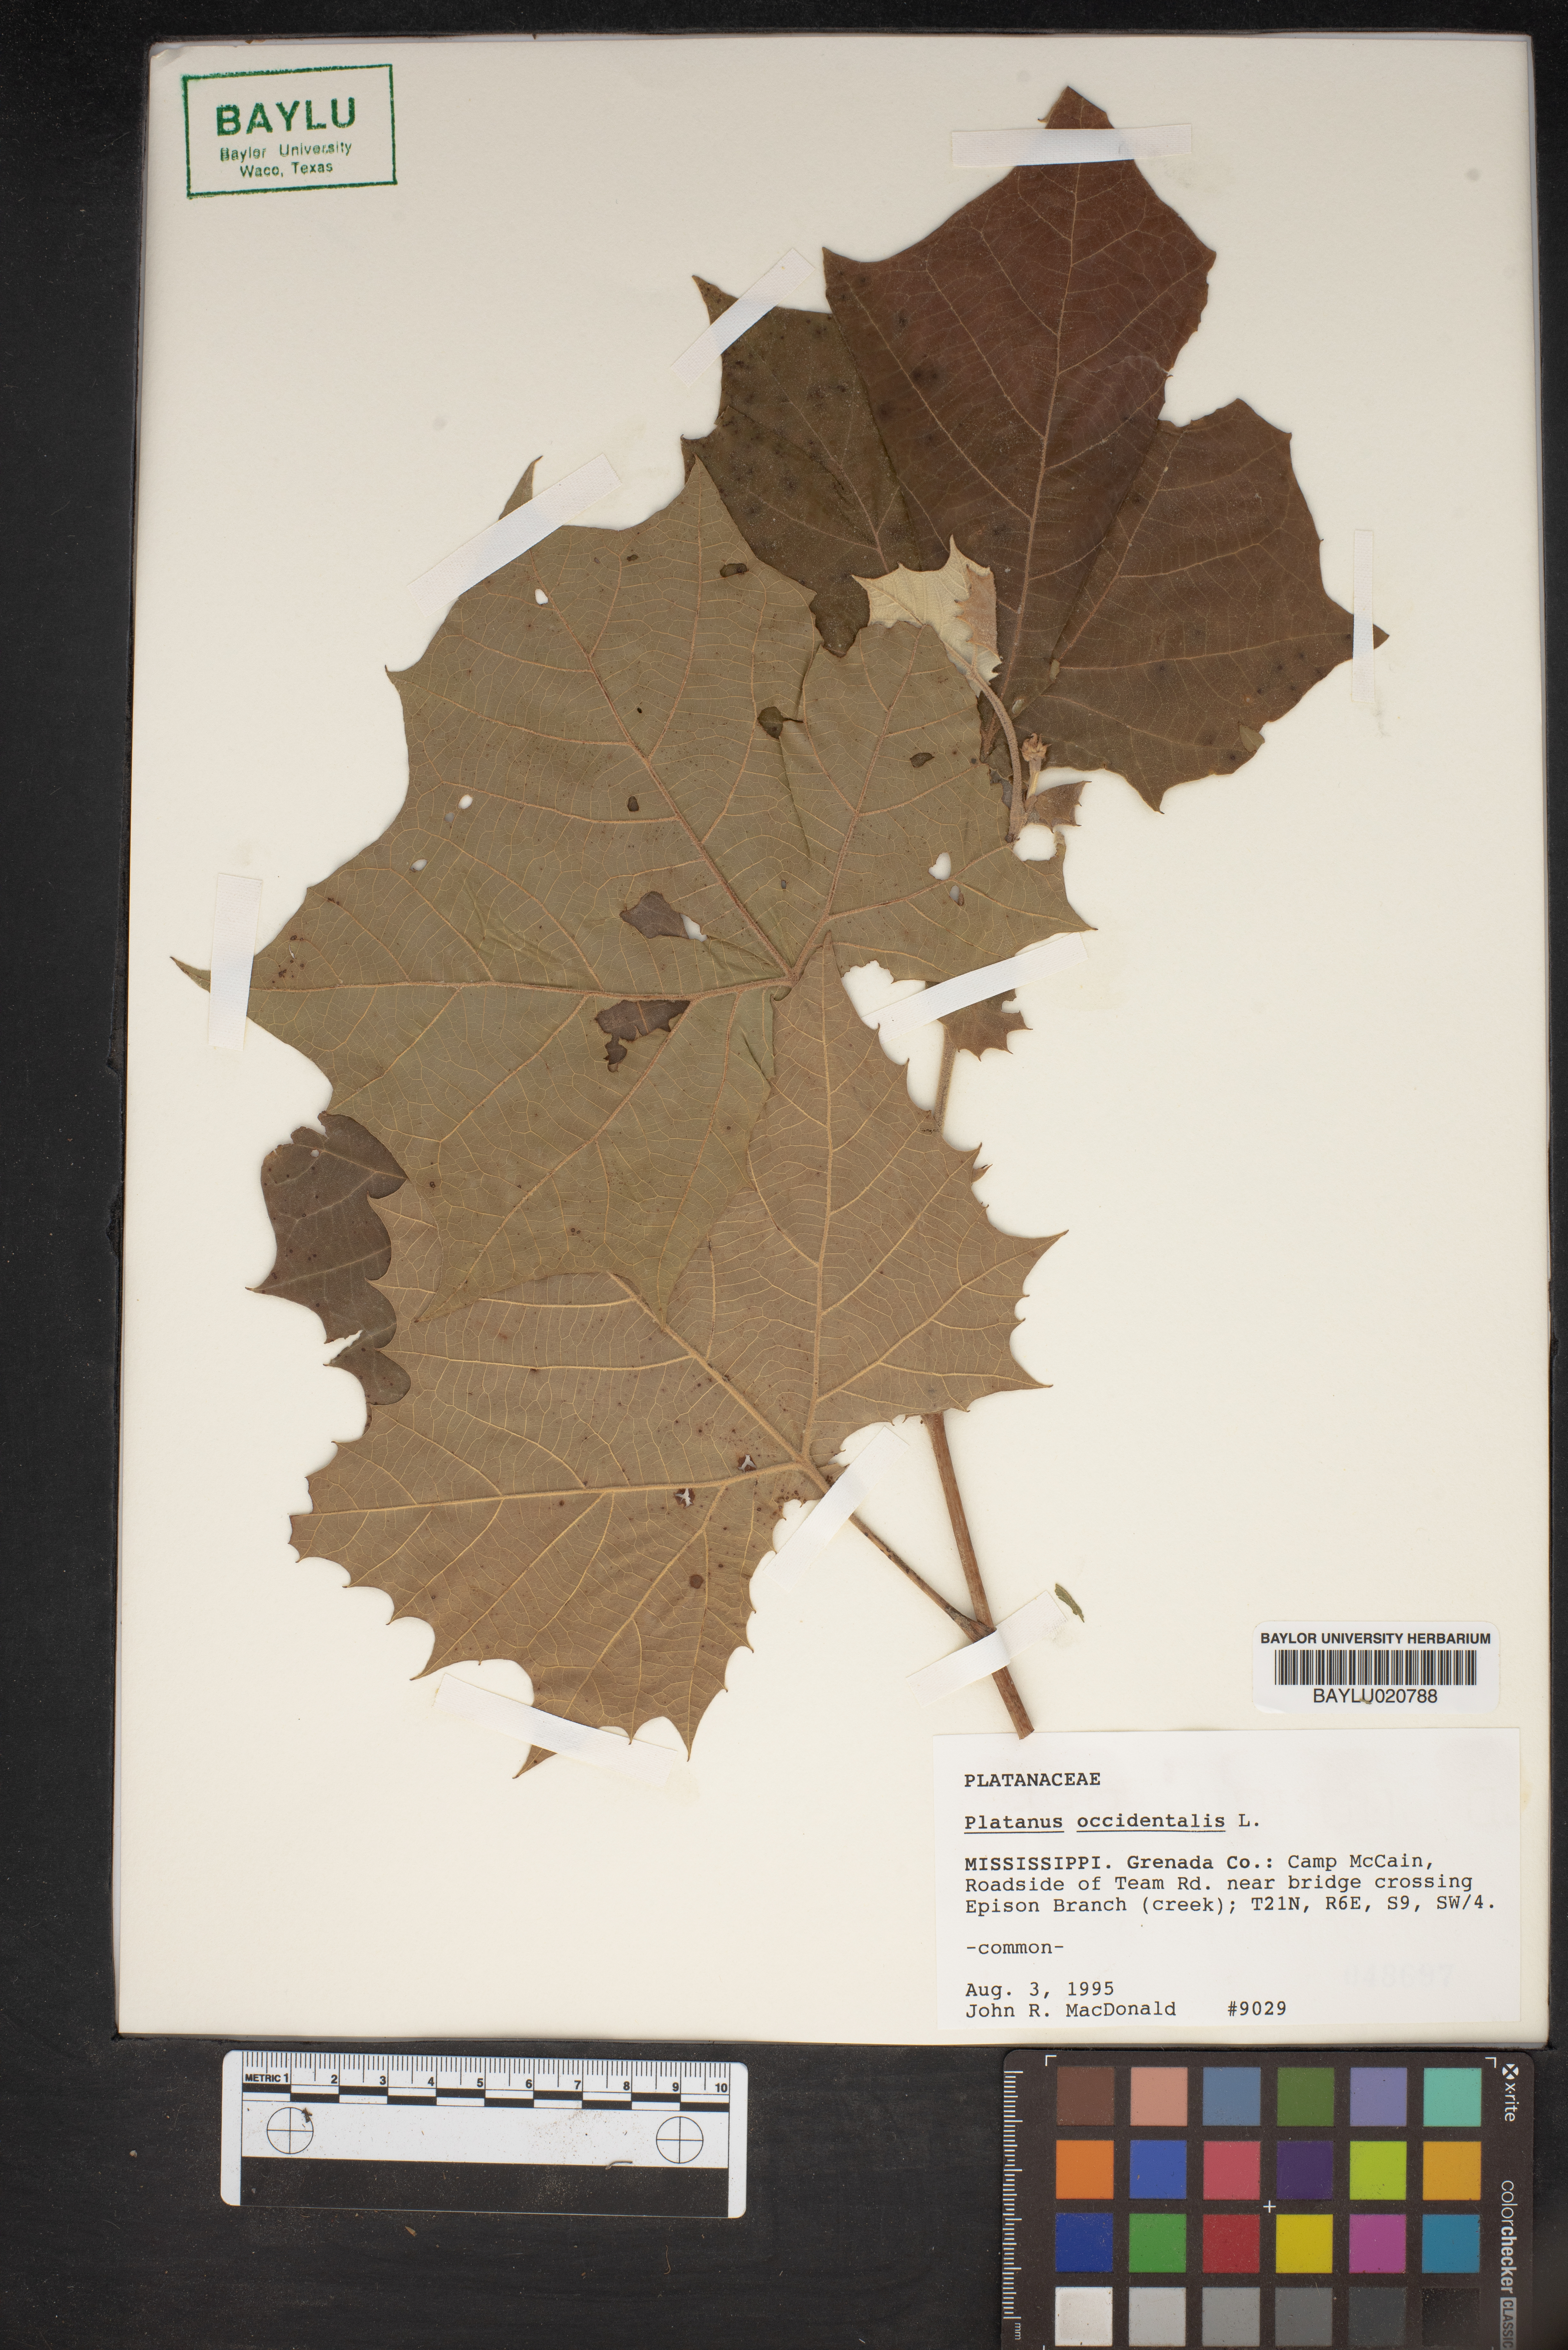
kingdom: Plantae
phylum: Tracheophyta
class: Magnoliopsida
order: Proteales
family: Platanaceae
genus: Platanus
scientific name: Platanus occidentalis
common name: American sycamore
